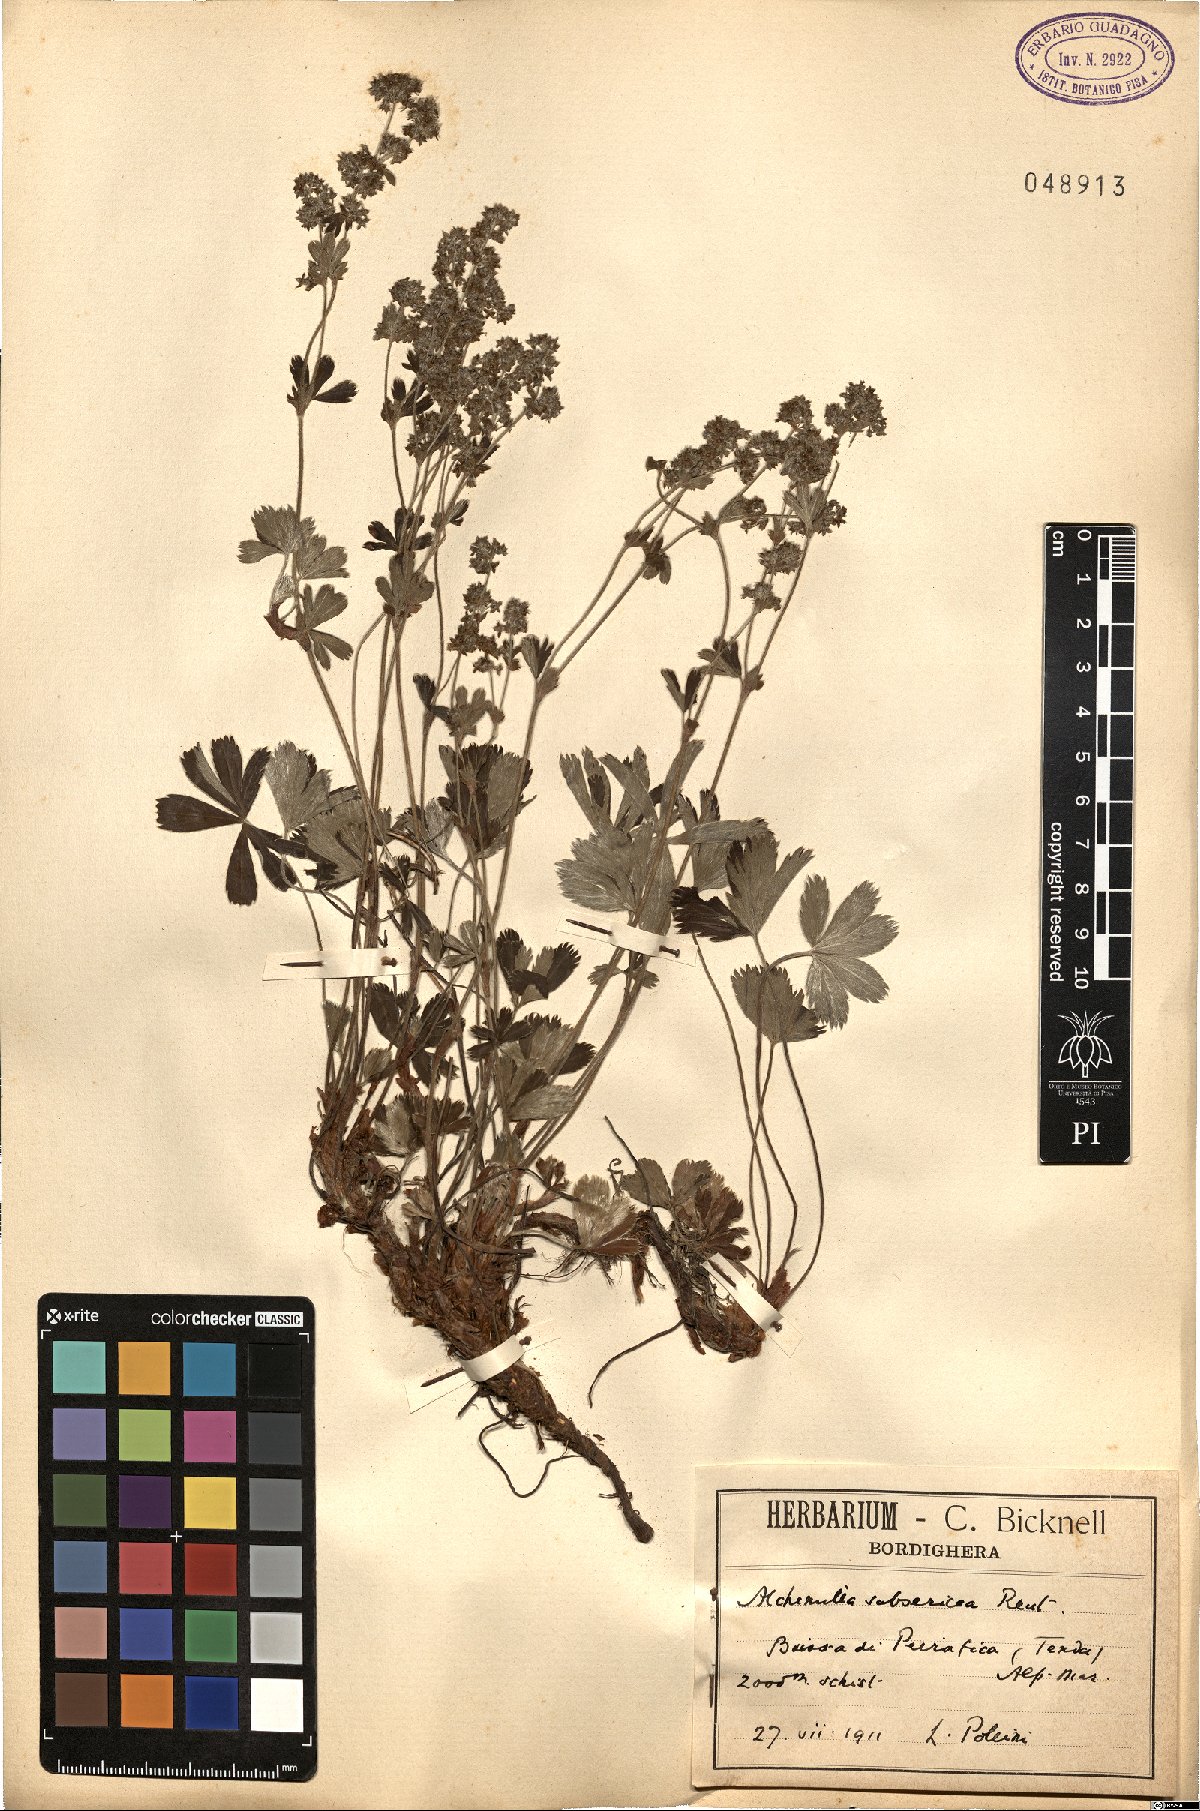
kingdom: Plantae
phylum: Tracheophyta
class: Magnoliopsida
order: Rosales
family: Rosaceae
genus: Alchemilla
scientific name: Alchemilla subsericea
